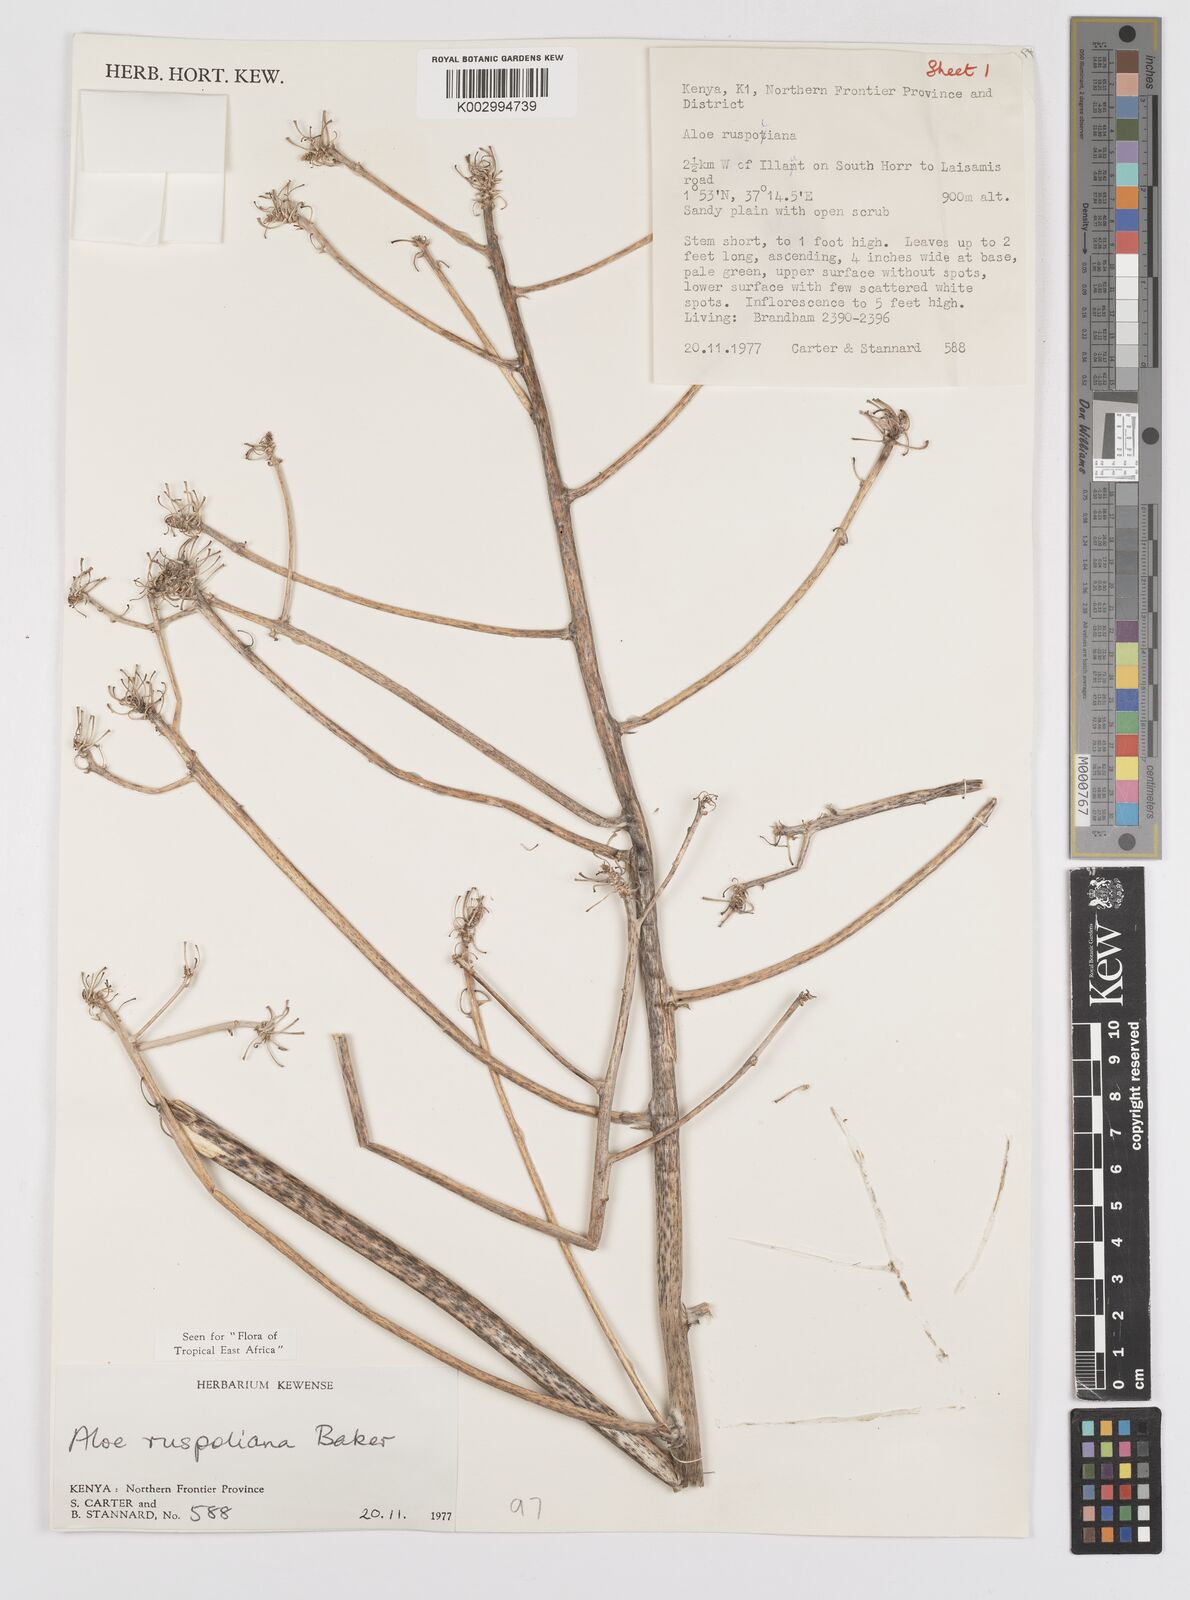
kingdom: Plantae
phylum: Tracheophyta
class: Liliopsida
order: Asparagales
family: Asphodelaceae
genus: Aloe
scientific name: Aloe ruspoliana
